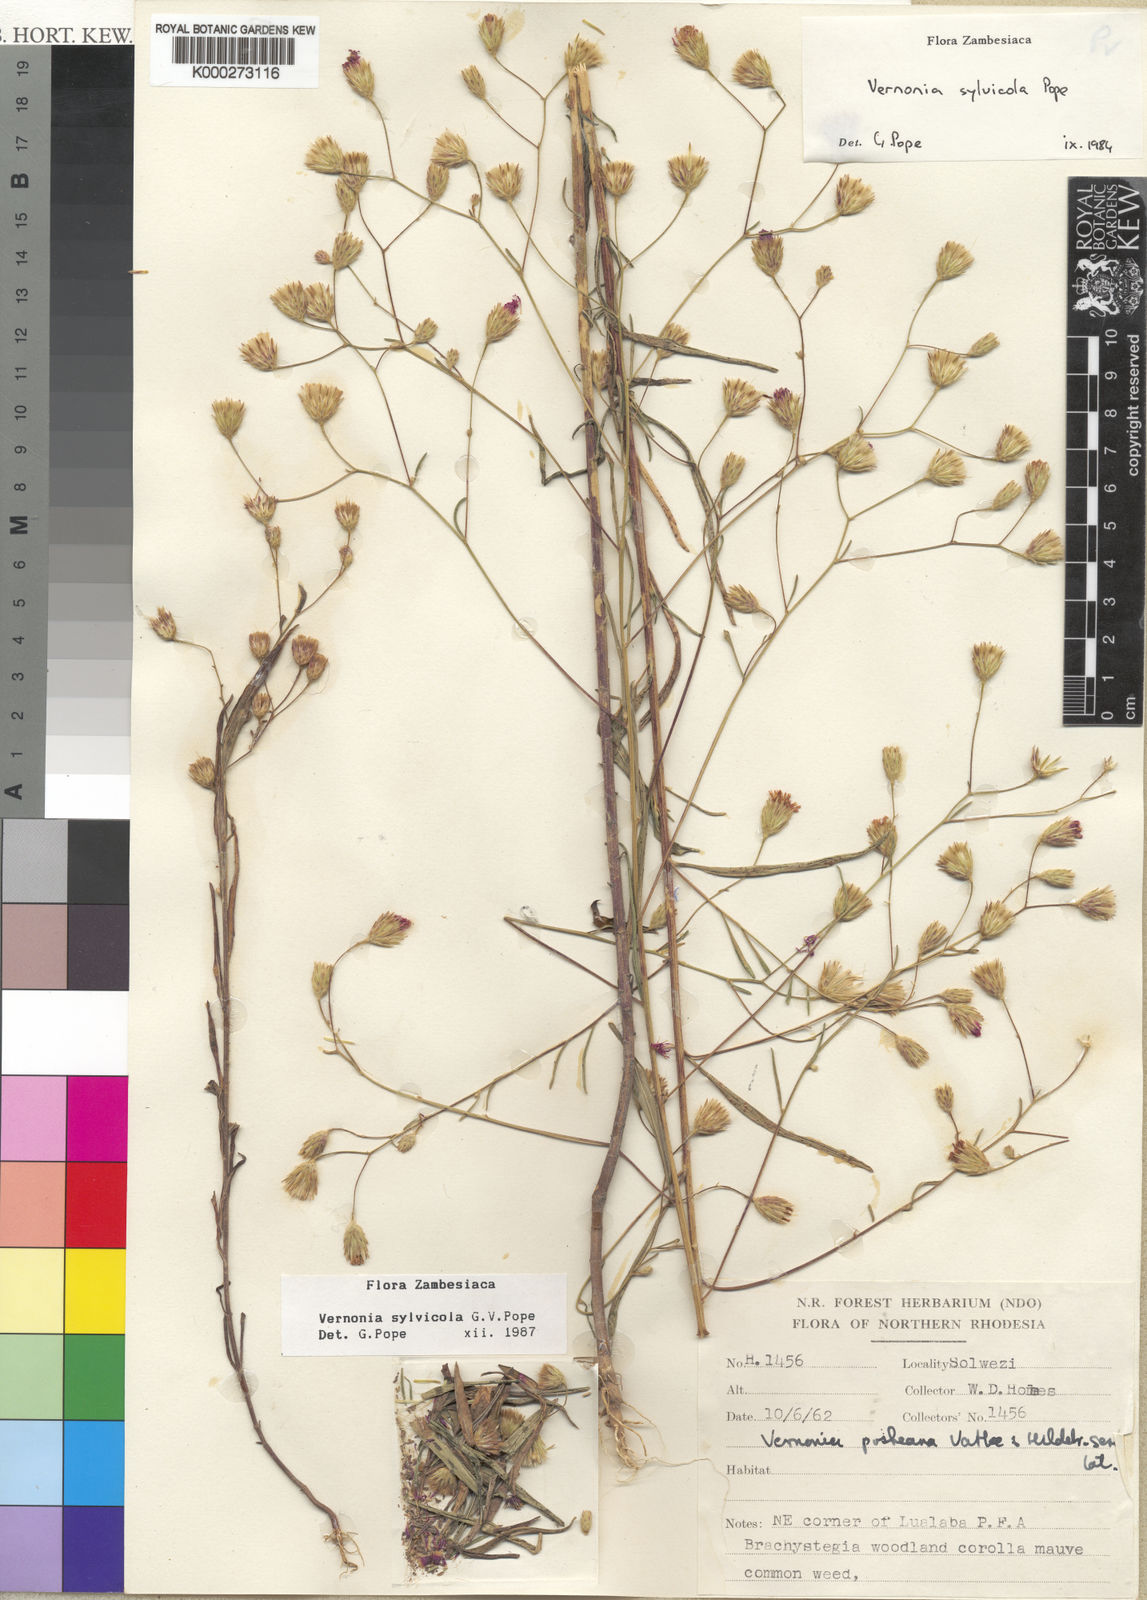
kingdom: Plantae
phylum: Tracheophyta
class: Magnoliopsida
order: Asterales
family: Asteraceae
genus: Crystallopollen
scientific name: Crystallopollen sylvicola
